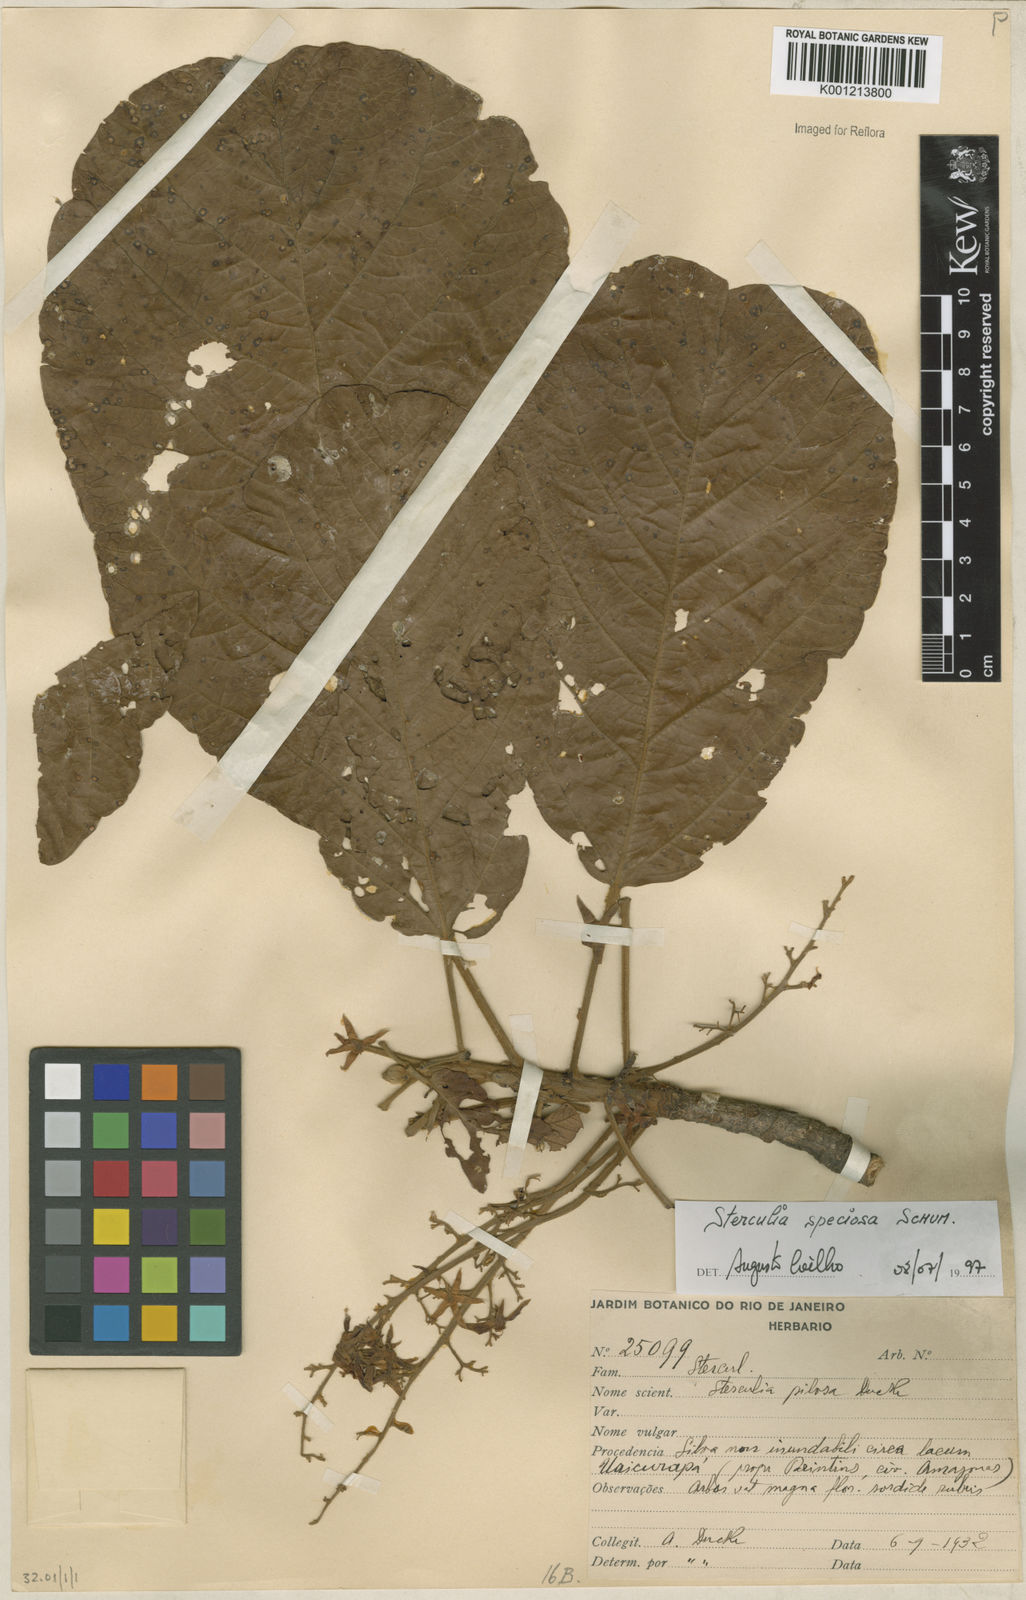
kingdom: Plantae
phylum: Tracheophyta
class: Magnoliopsida
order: Malvales
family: Malvaceae
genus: Sterculia
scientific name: Sterculia speciosa
